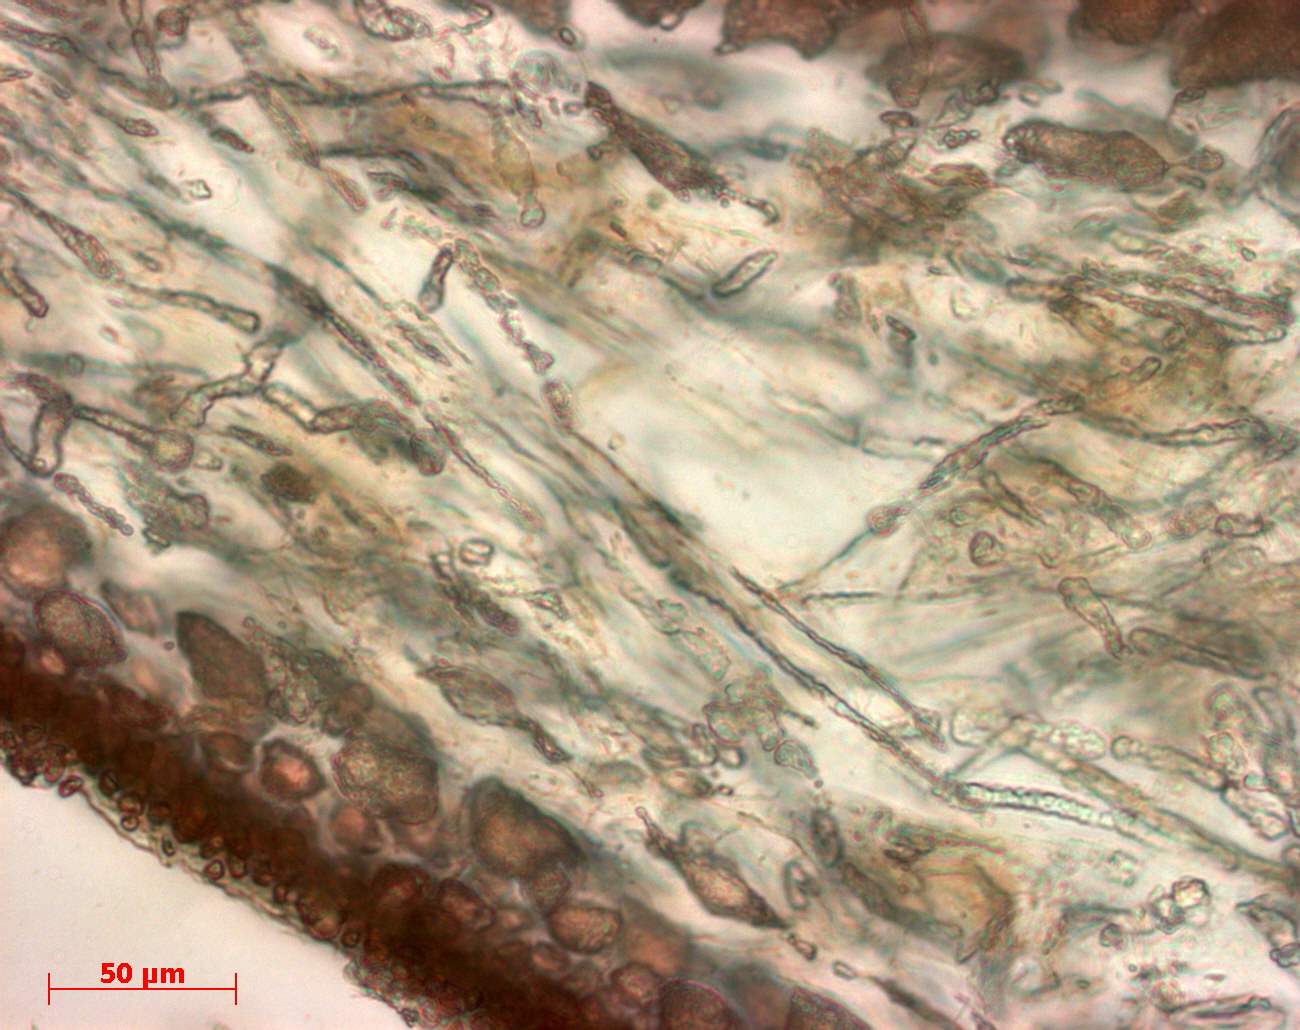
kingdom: Plantae
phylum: Rhodophyta
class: Florideophyceae
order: Gigartinales
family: Kallymeniaceae
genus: Psaromenia
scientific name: Psaromenia berggrenii
